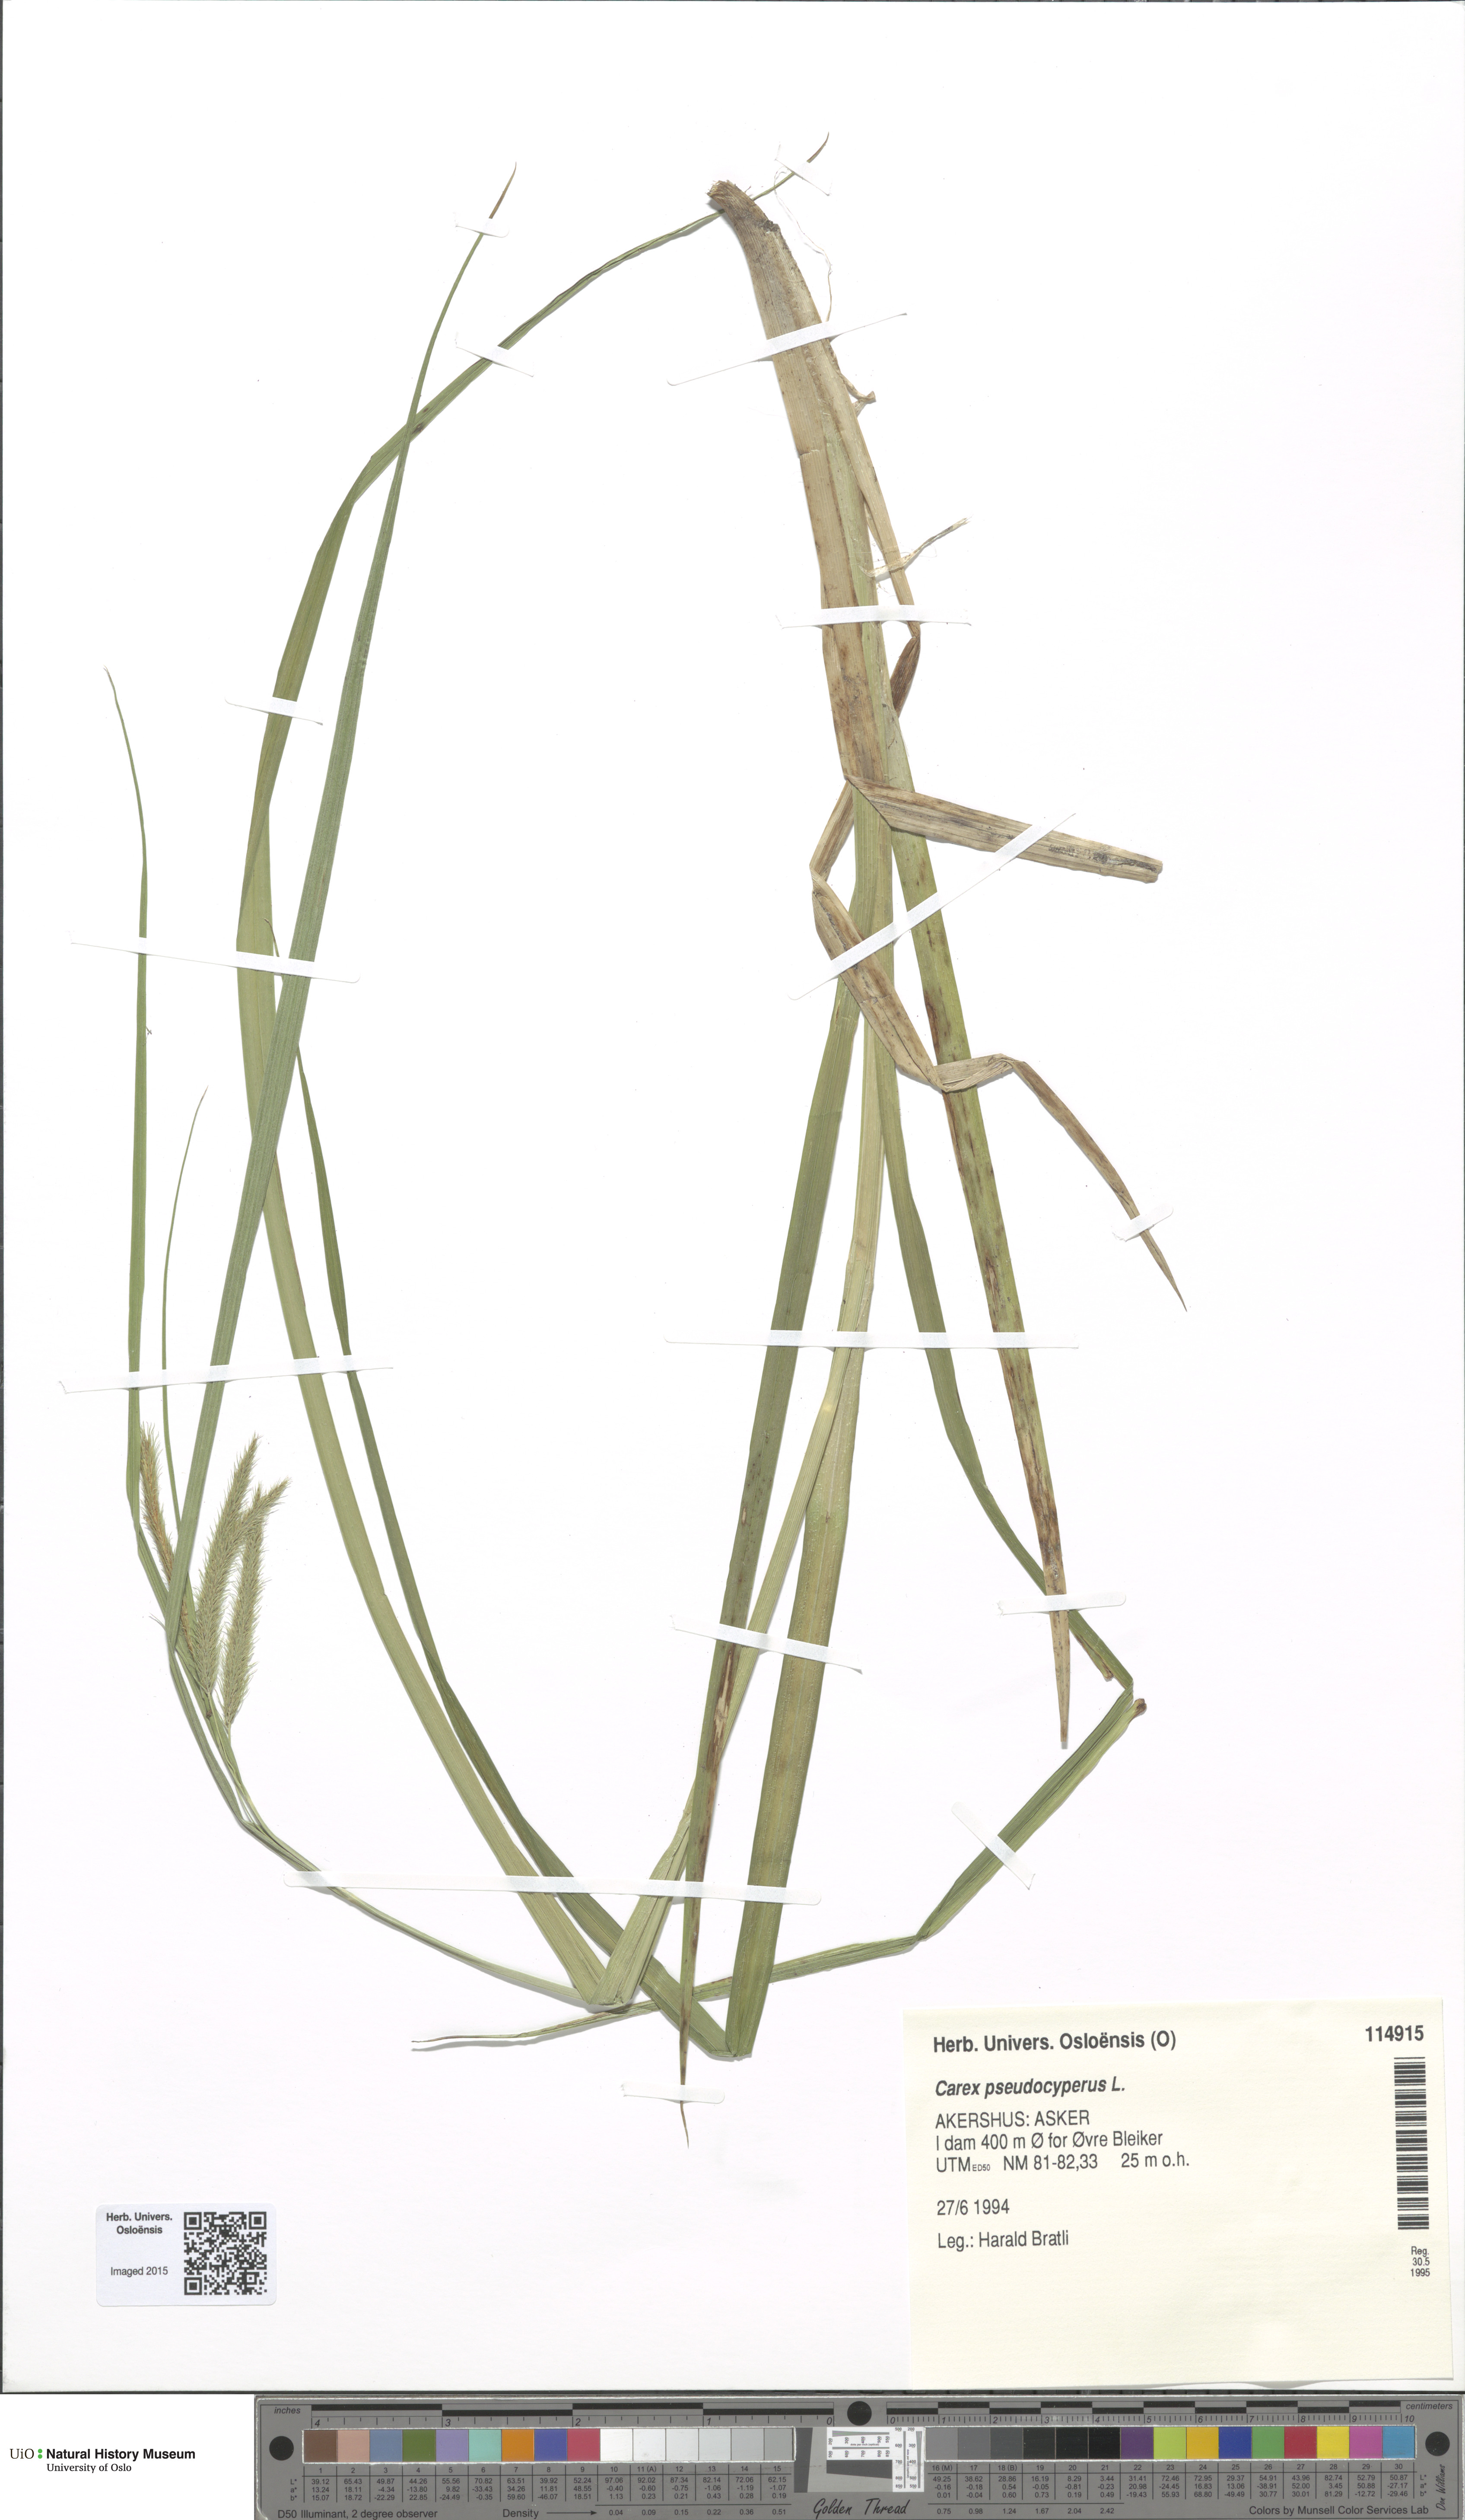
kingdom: Plantae
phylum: Tracheophyta
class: Liliopsida
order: Poales
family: Cyperaceae
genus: Carex
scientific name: Carex pseudocyperus
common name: Cyperus sedge
